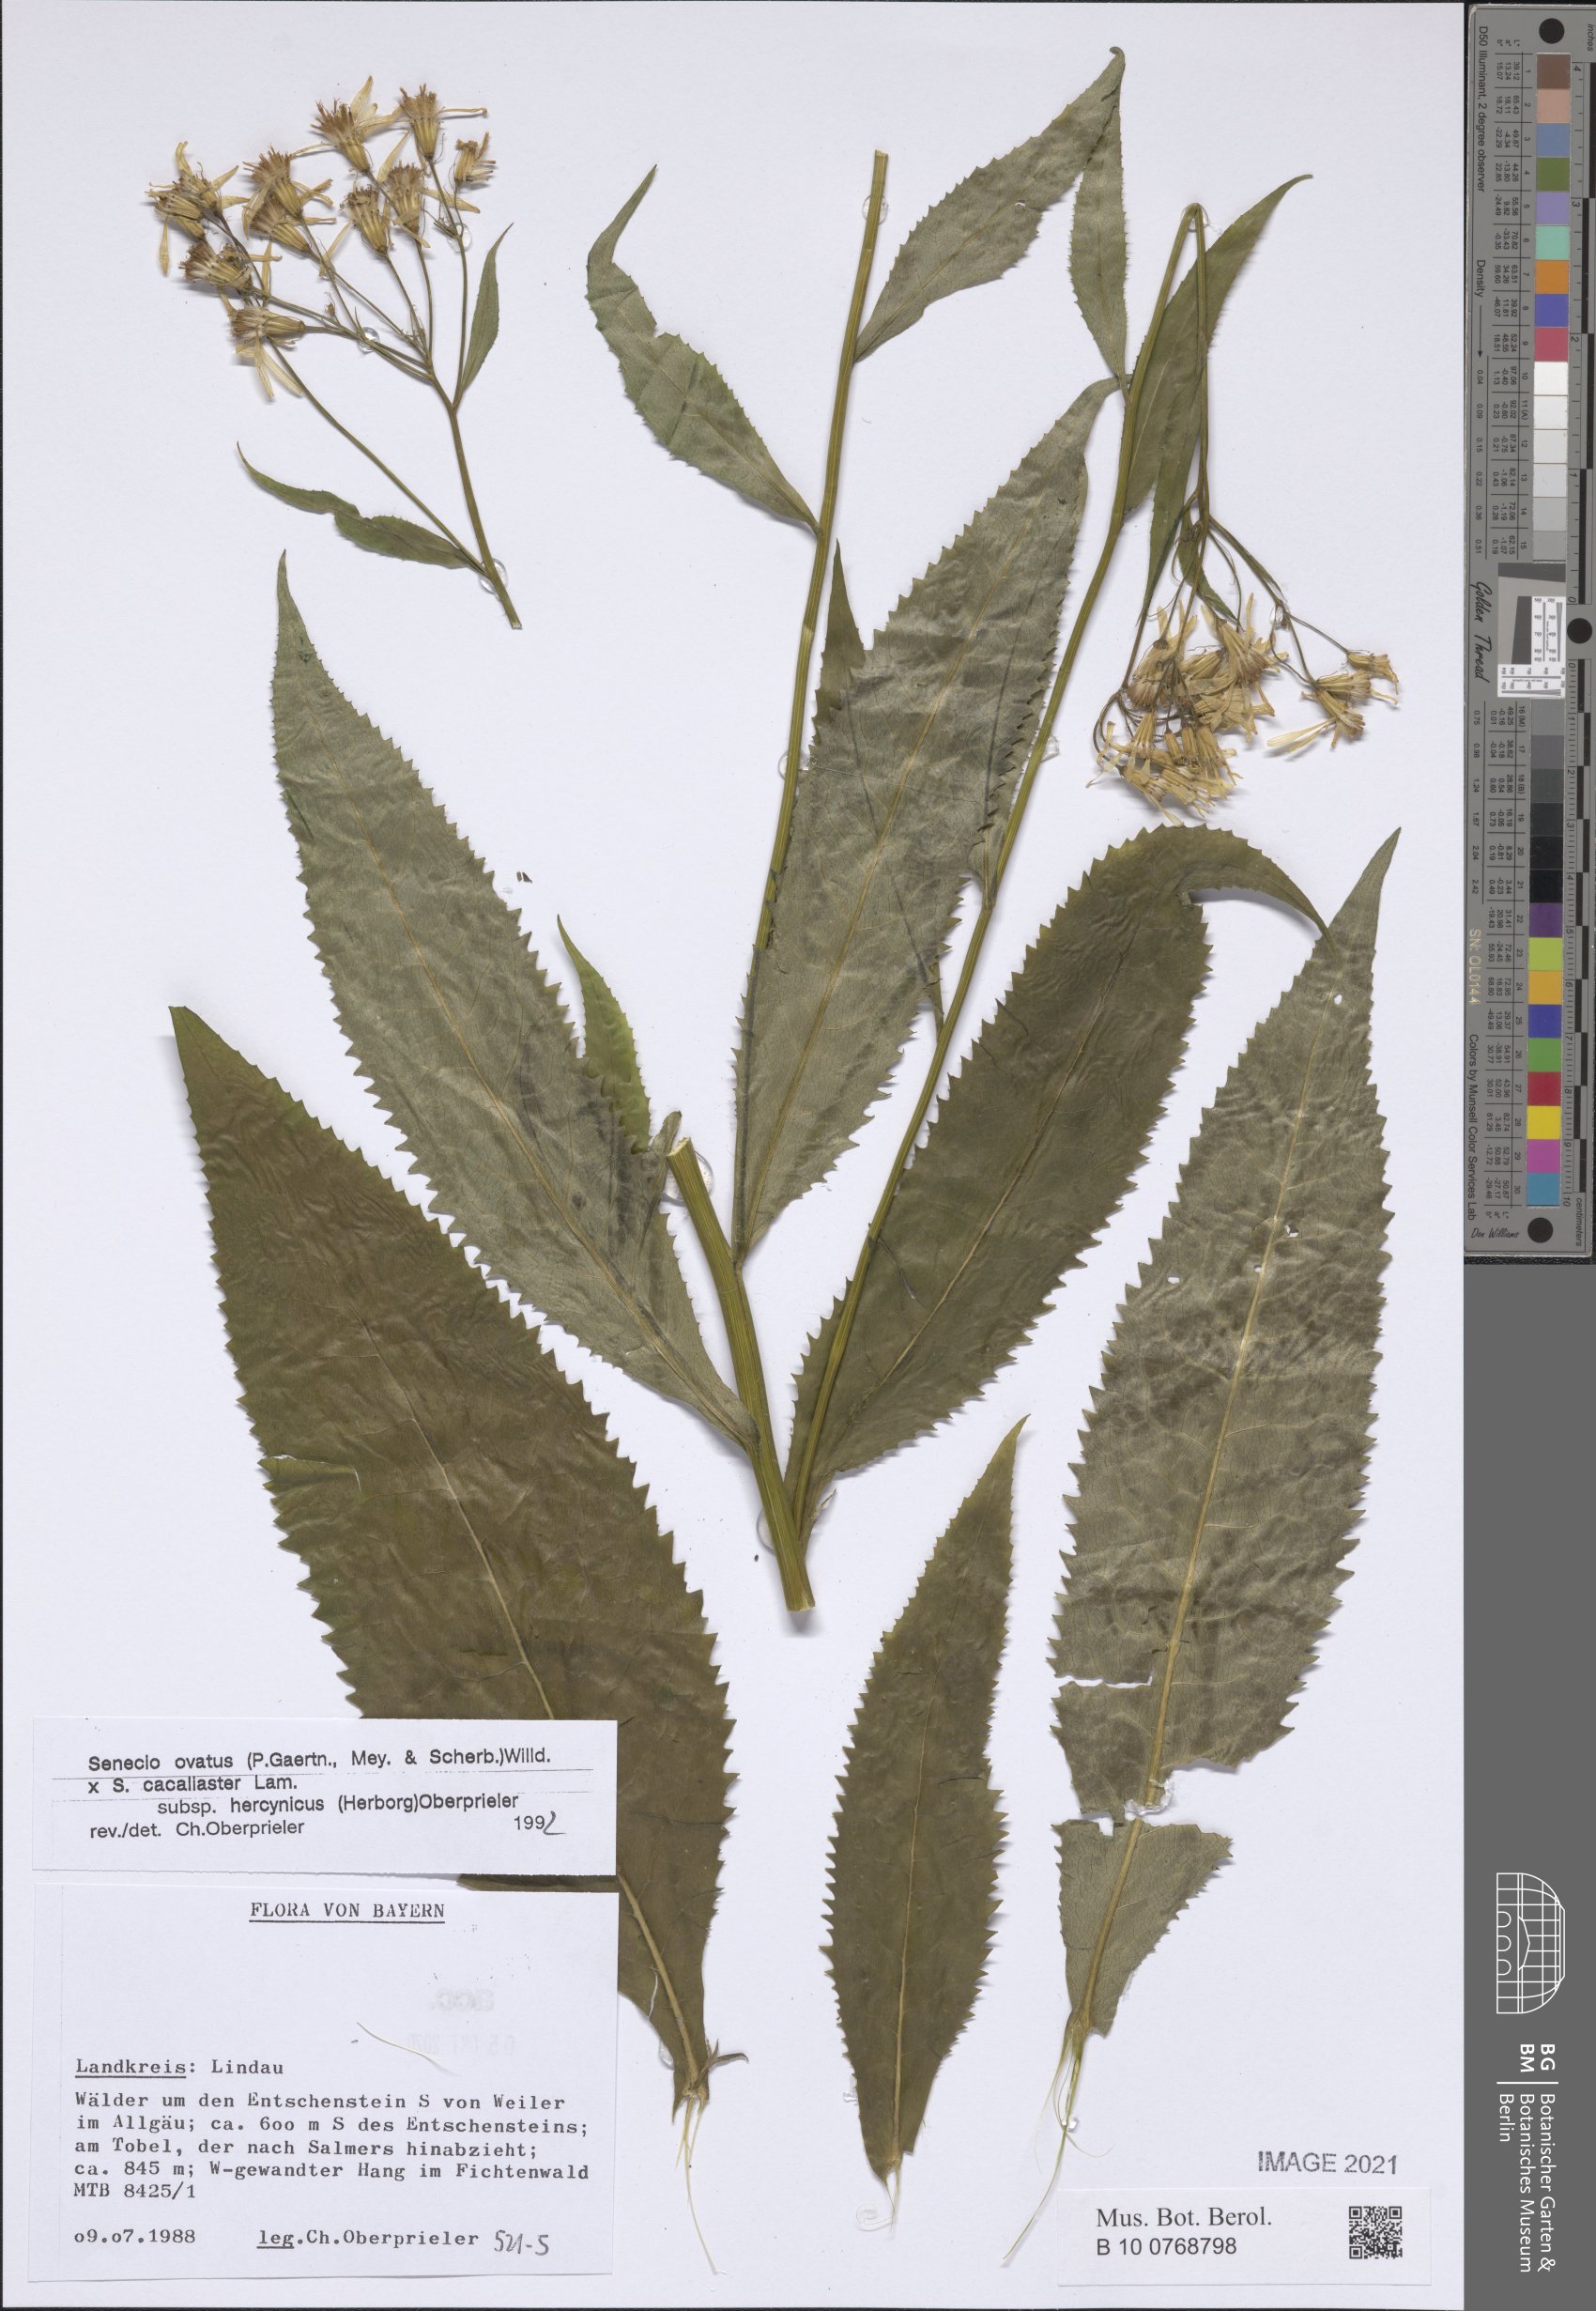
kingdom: Plantae
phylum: Tracheophyta
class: Magnoliopsida
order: Asterales
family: Asteraceae
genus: Senecio
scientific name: Senecio ovatus
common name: Wood ragwort
